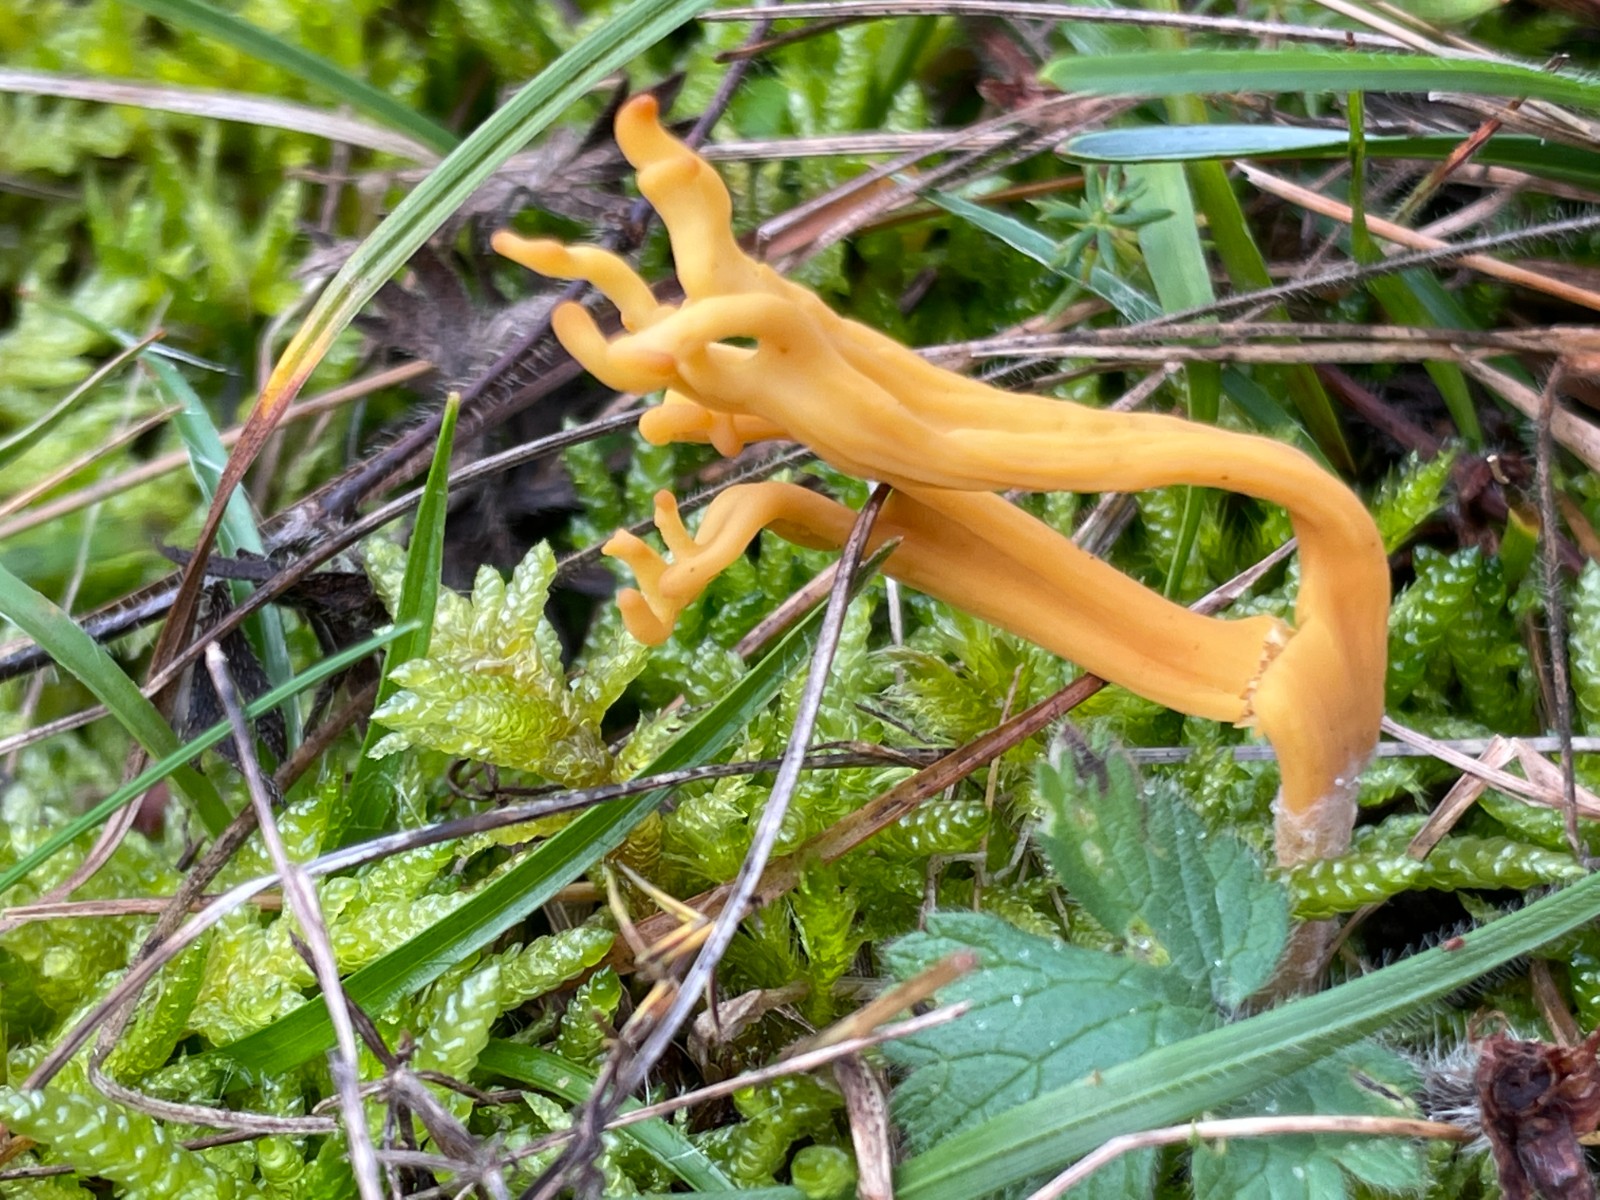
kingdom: Fungi
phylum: Basidiomycota
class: Agaricomycetes
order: Agaricales
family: Clavariaceae
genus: Clavulinopsis
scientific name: Clavulinopsis corniculata
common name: eng-køllesvamp
